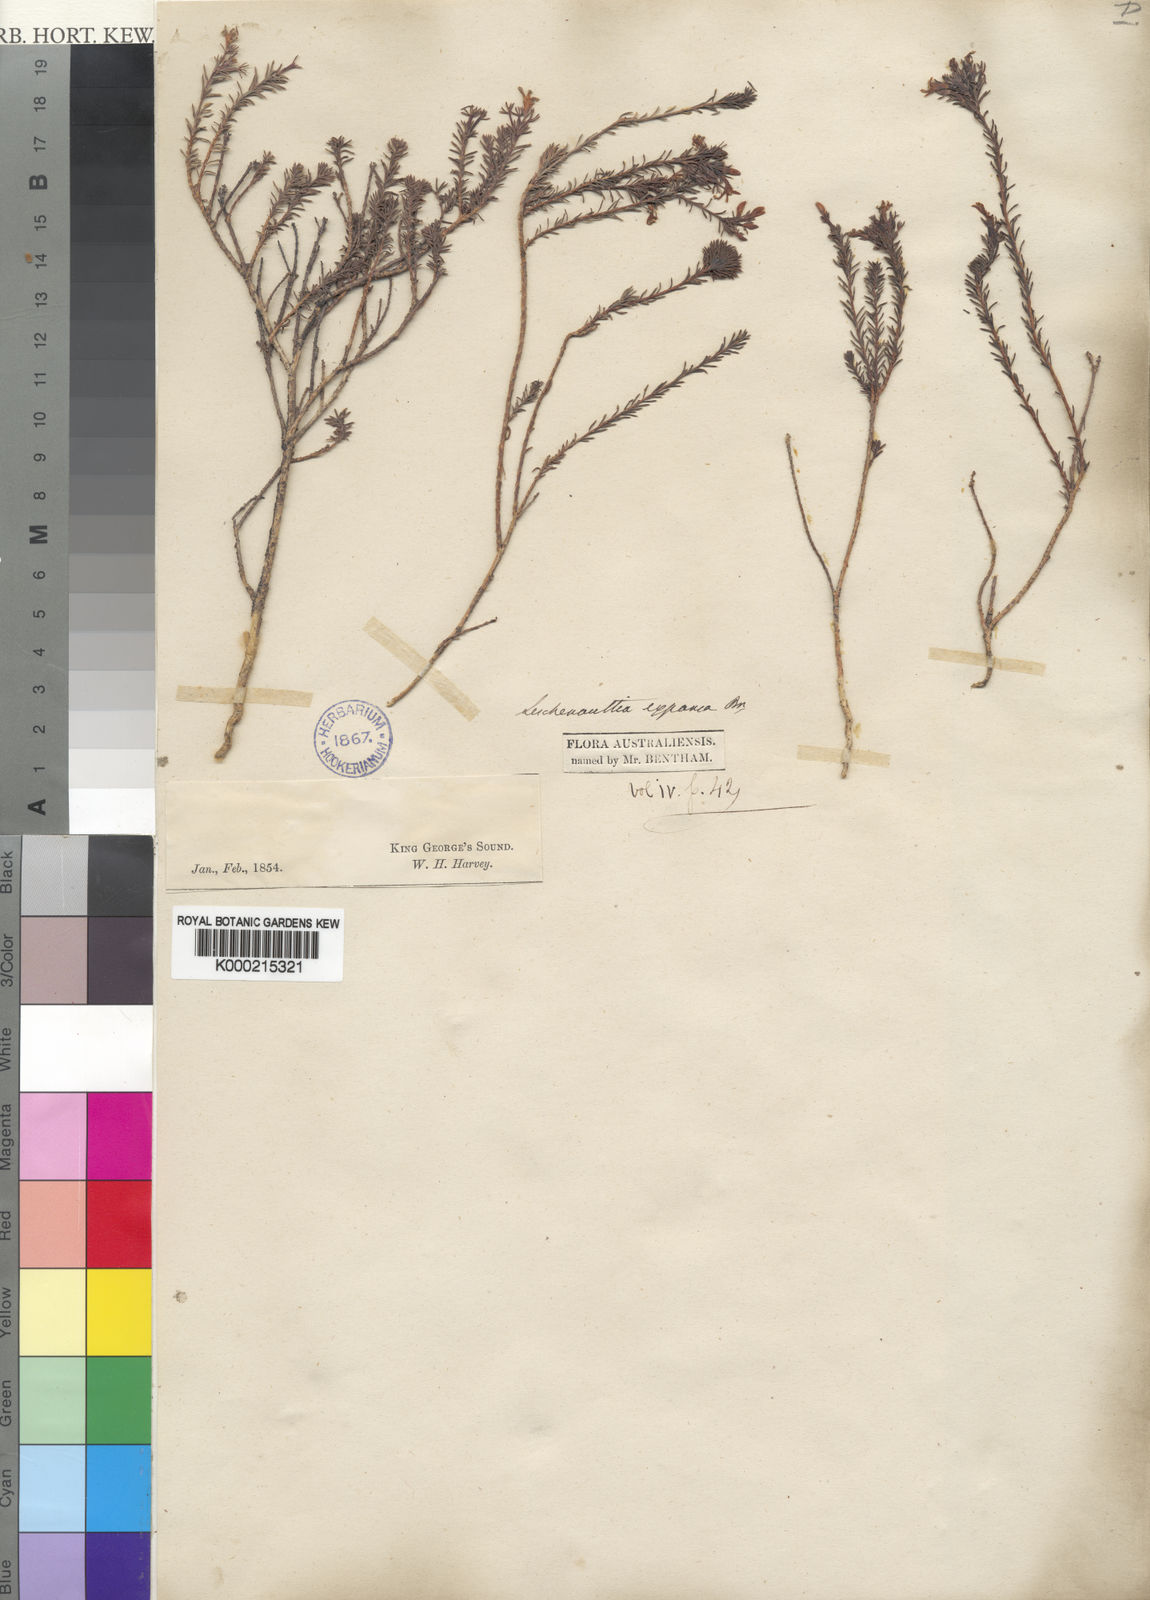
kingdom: Plantae
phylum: Tracheophyta
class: Magnoliopsida
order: Asterales
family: Goodeniaceae
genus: Leschenaultia
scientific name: Leschenaultia expansa
